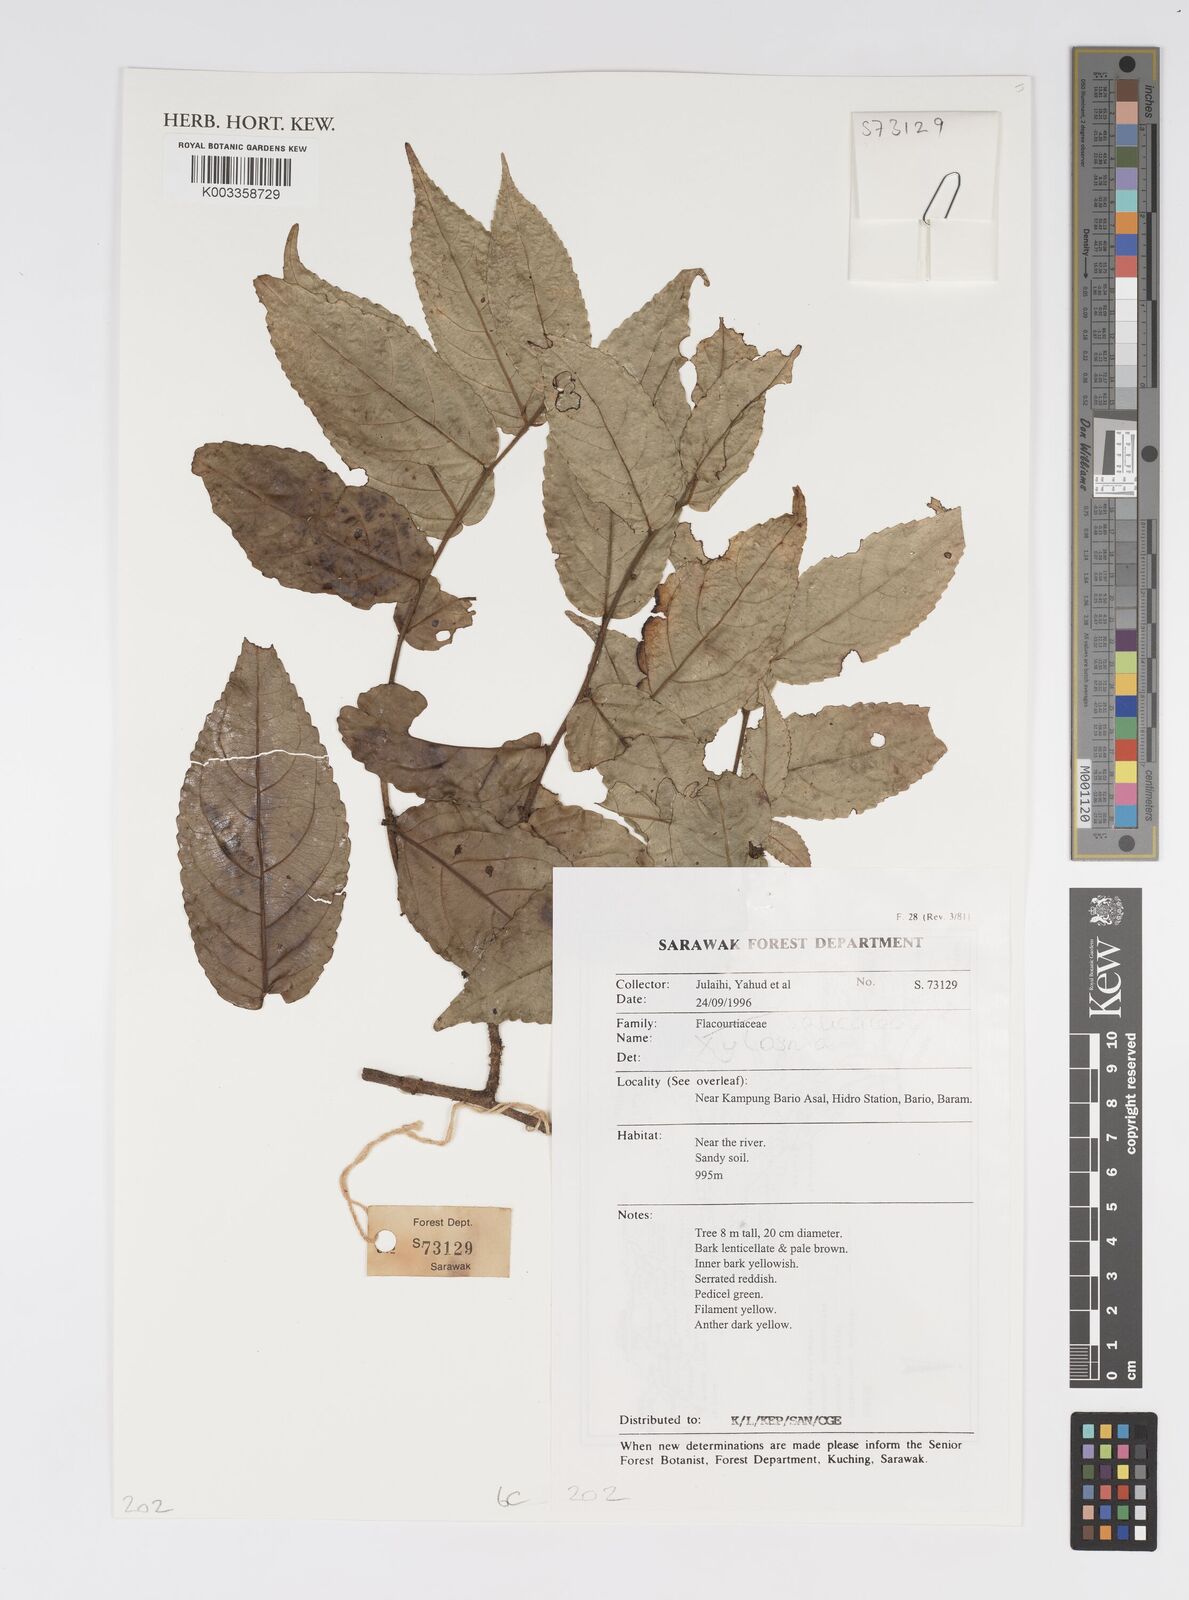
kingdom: Plantae
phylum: Tracheophyta
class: Magnoliopsida
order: Malpighiales
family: Salicaceae
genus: Xylosma
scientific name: Xylosma
